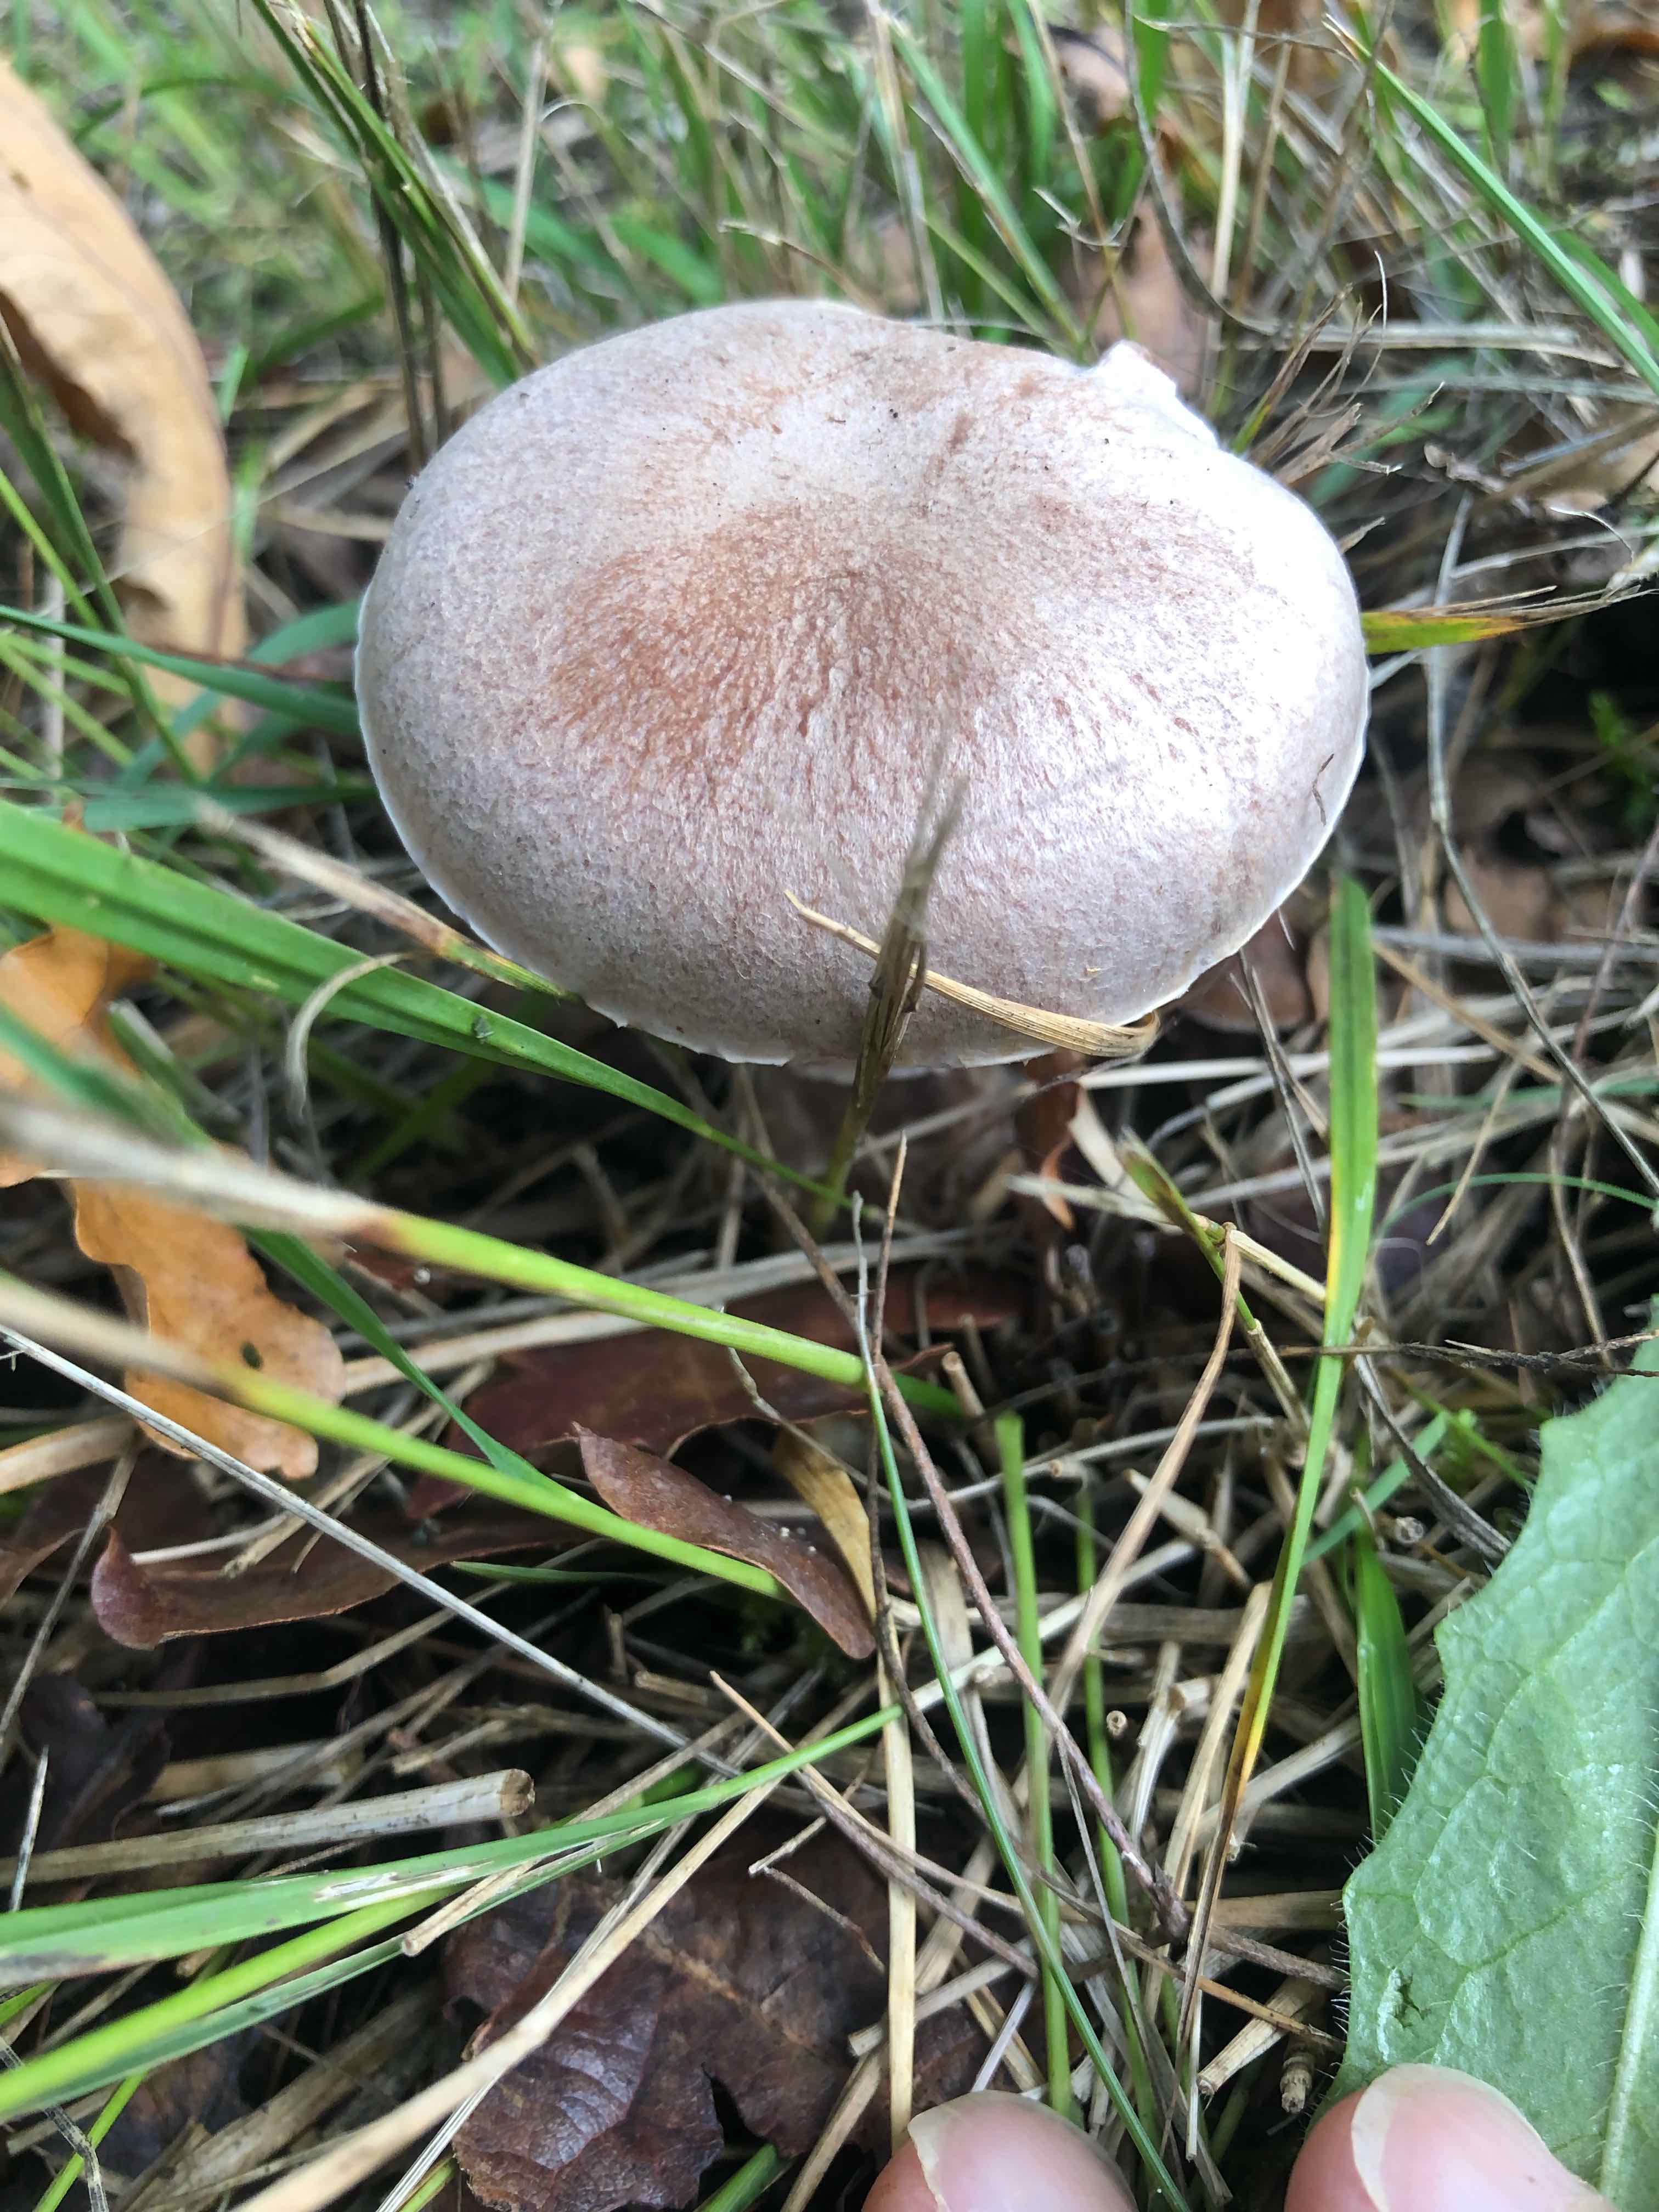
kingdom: Fungi
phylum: Basidiomycota
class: Agaricomycetes
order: Agaricales
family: Cortinariaceae
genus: Cortinarius
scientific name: Cortinarius torvus
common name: champignonagtig slørhat
